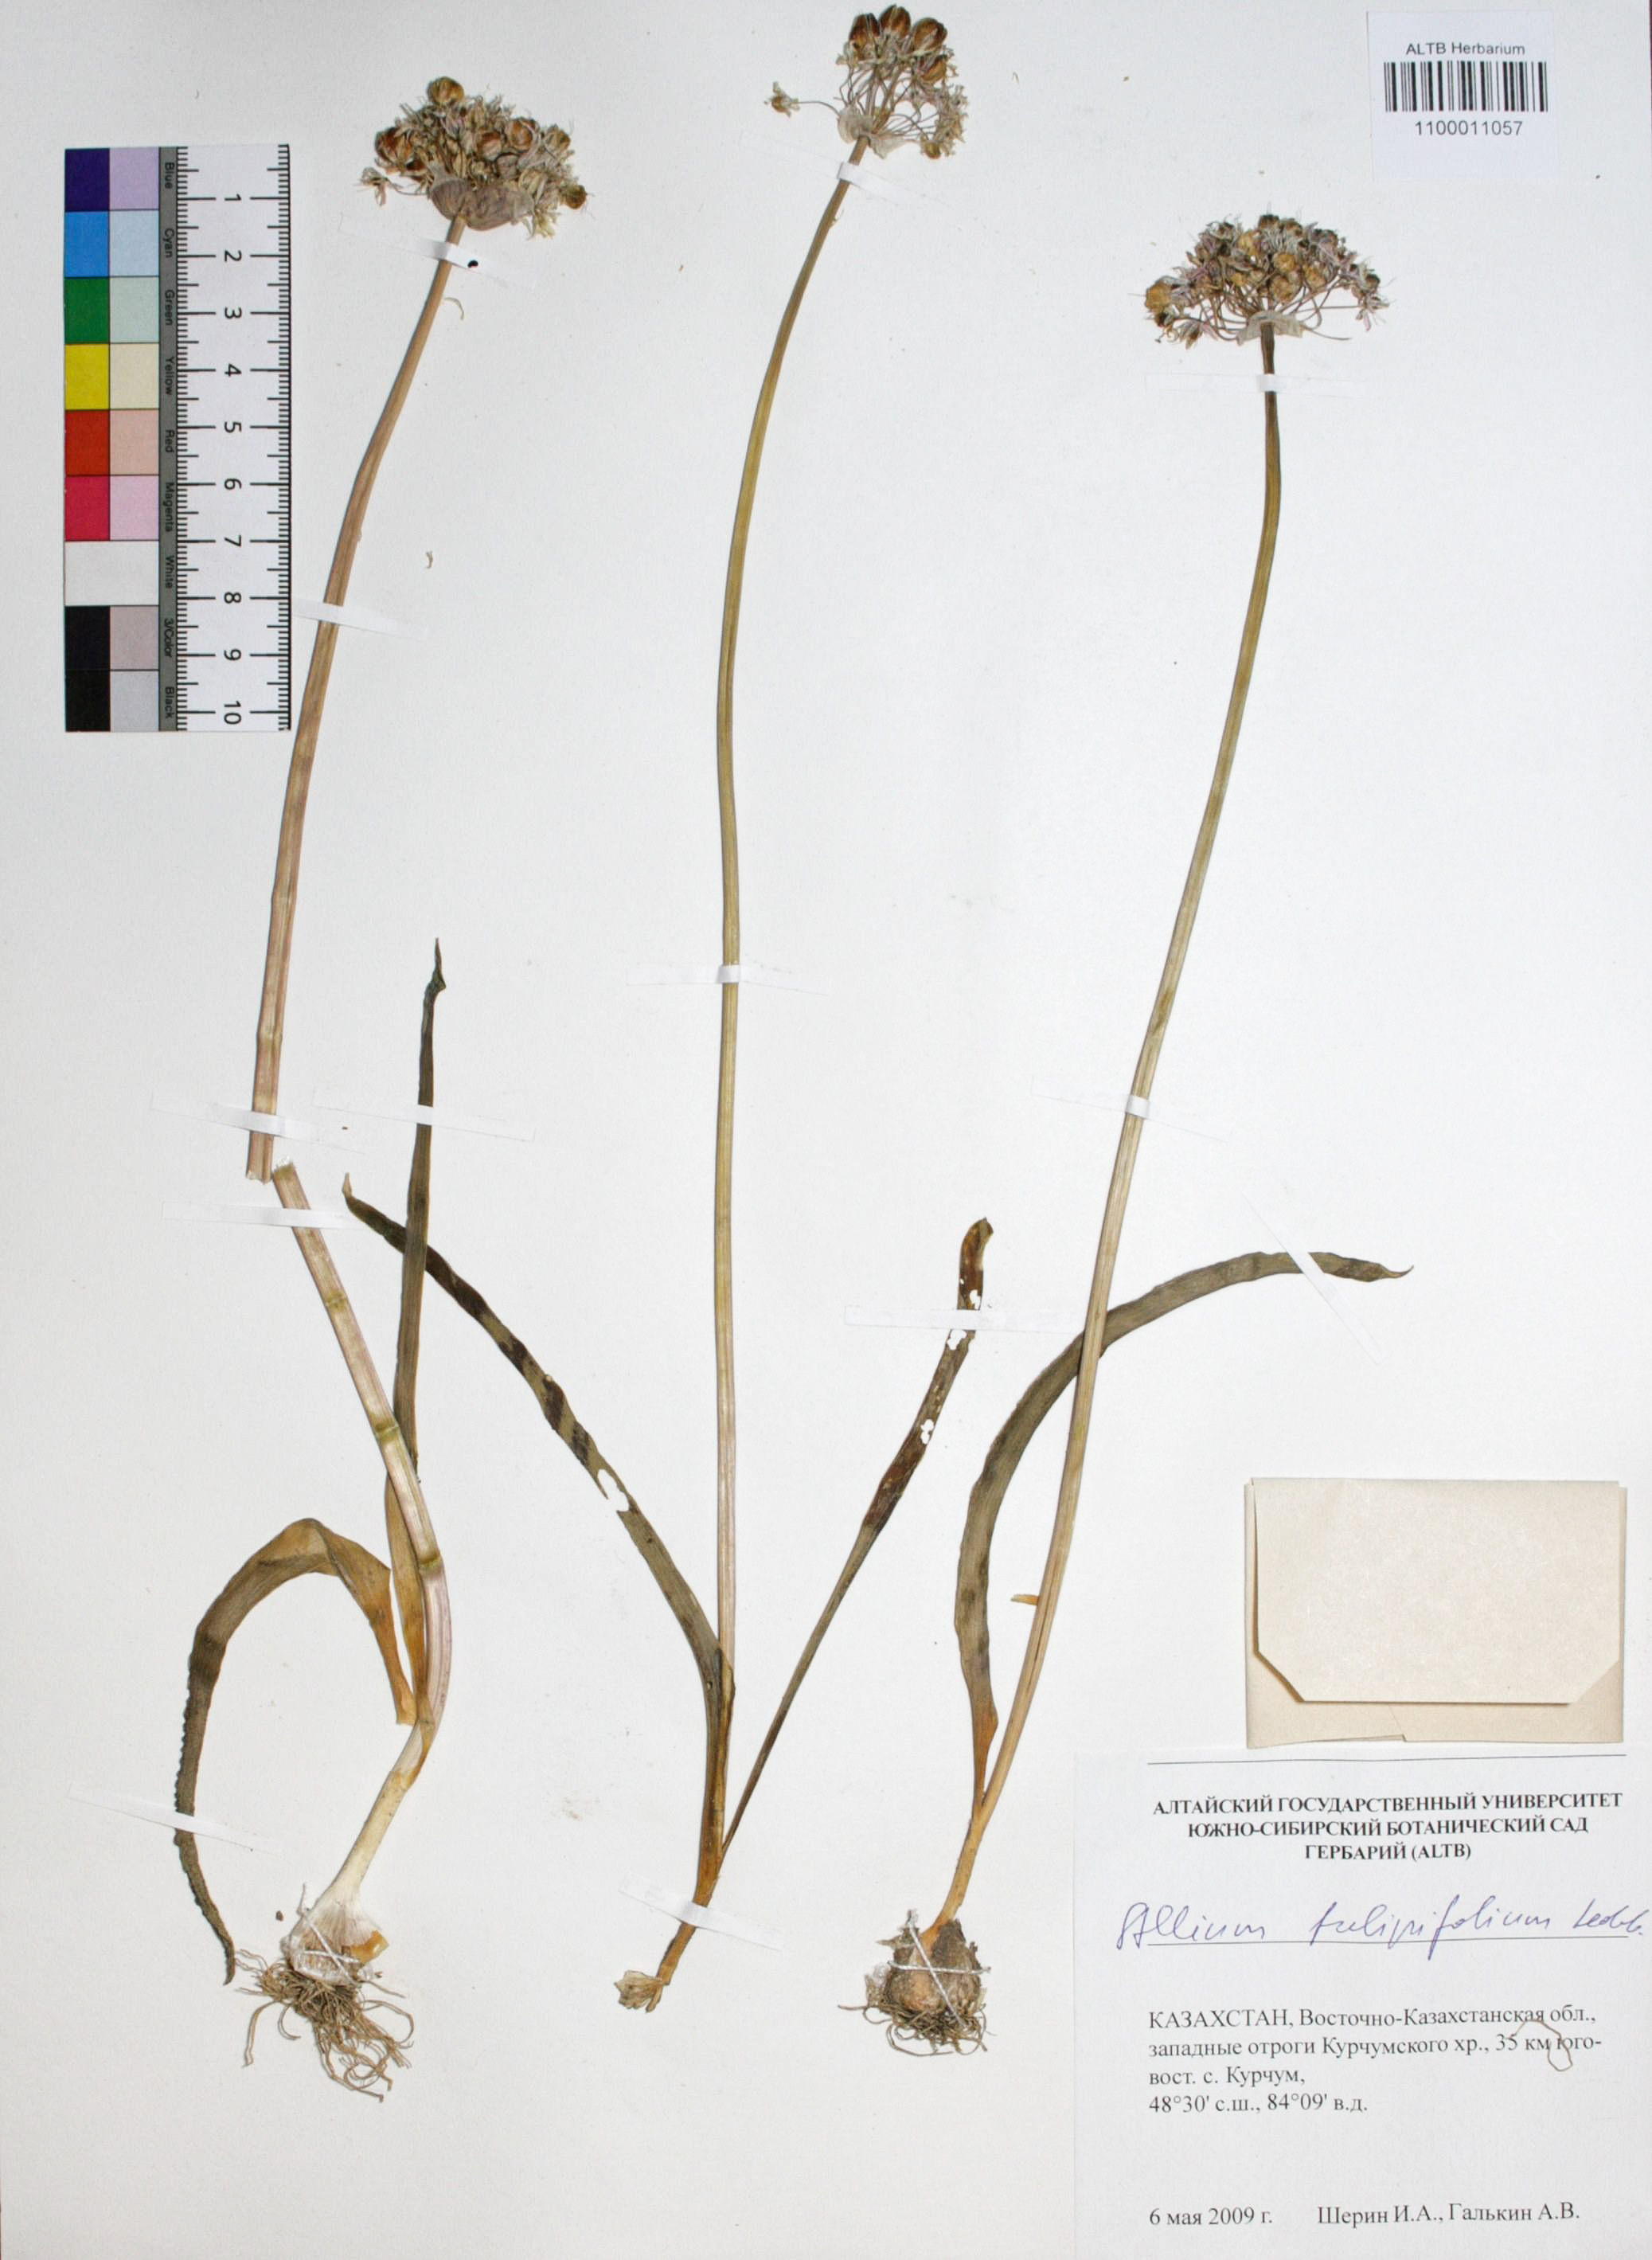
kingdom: Plantae
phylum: Tracheophyta
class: Liliopsida
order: Asparagales
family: Amaryllidaceae
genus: Allium
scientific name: Allium tulipifolium
